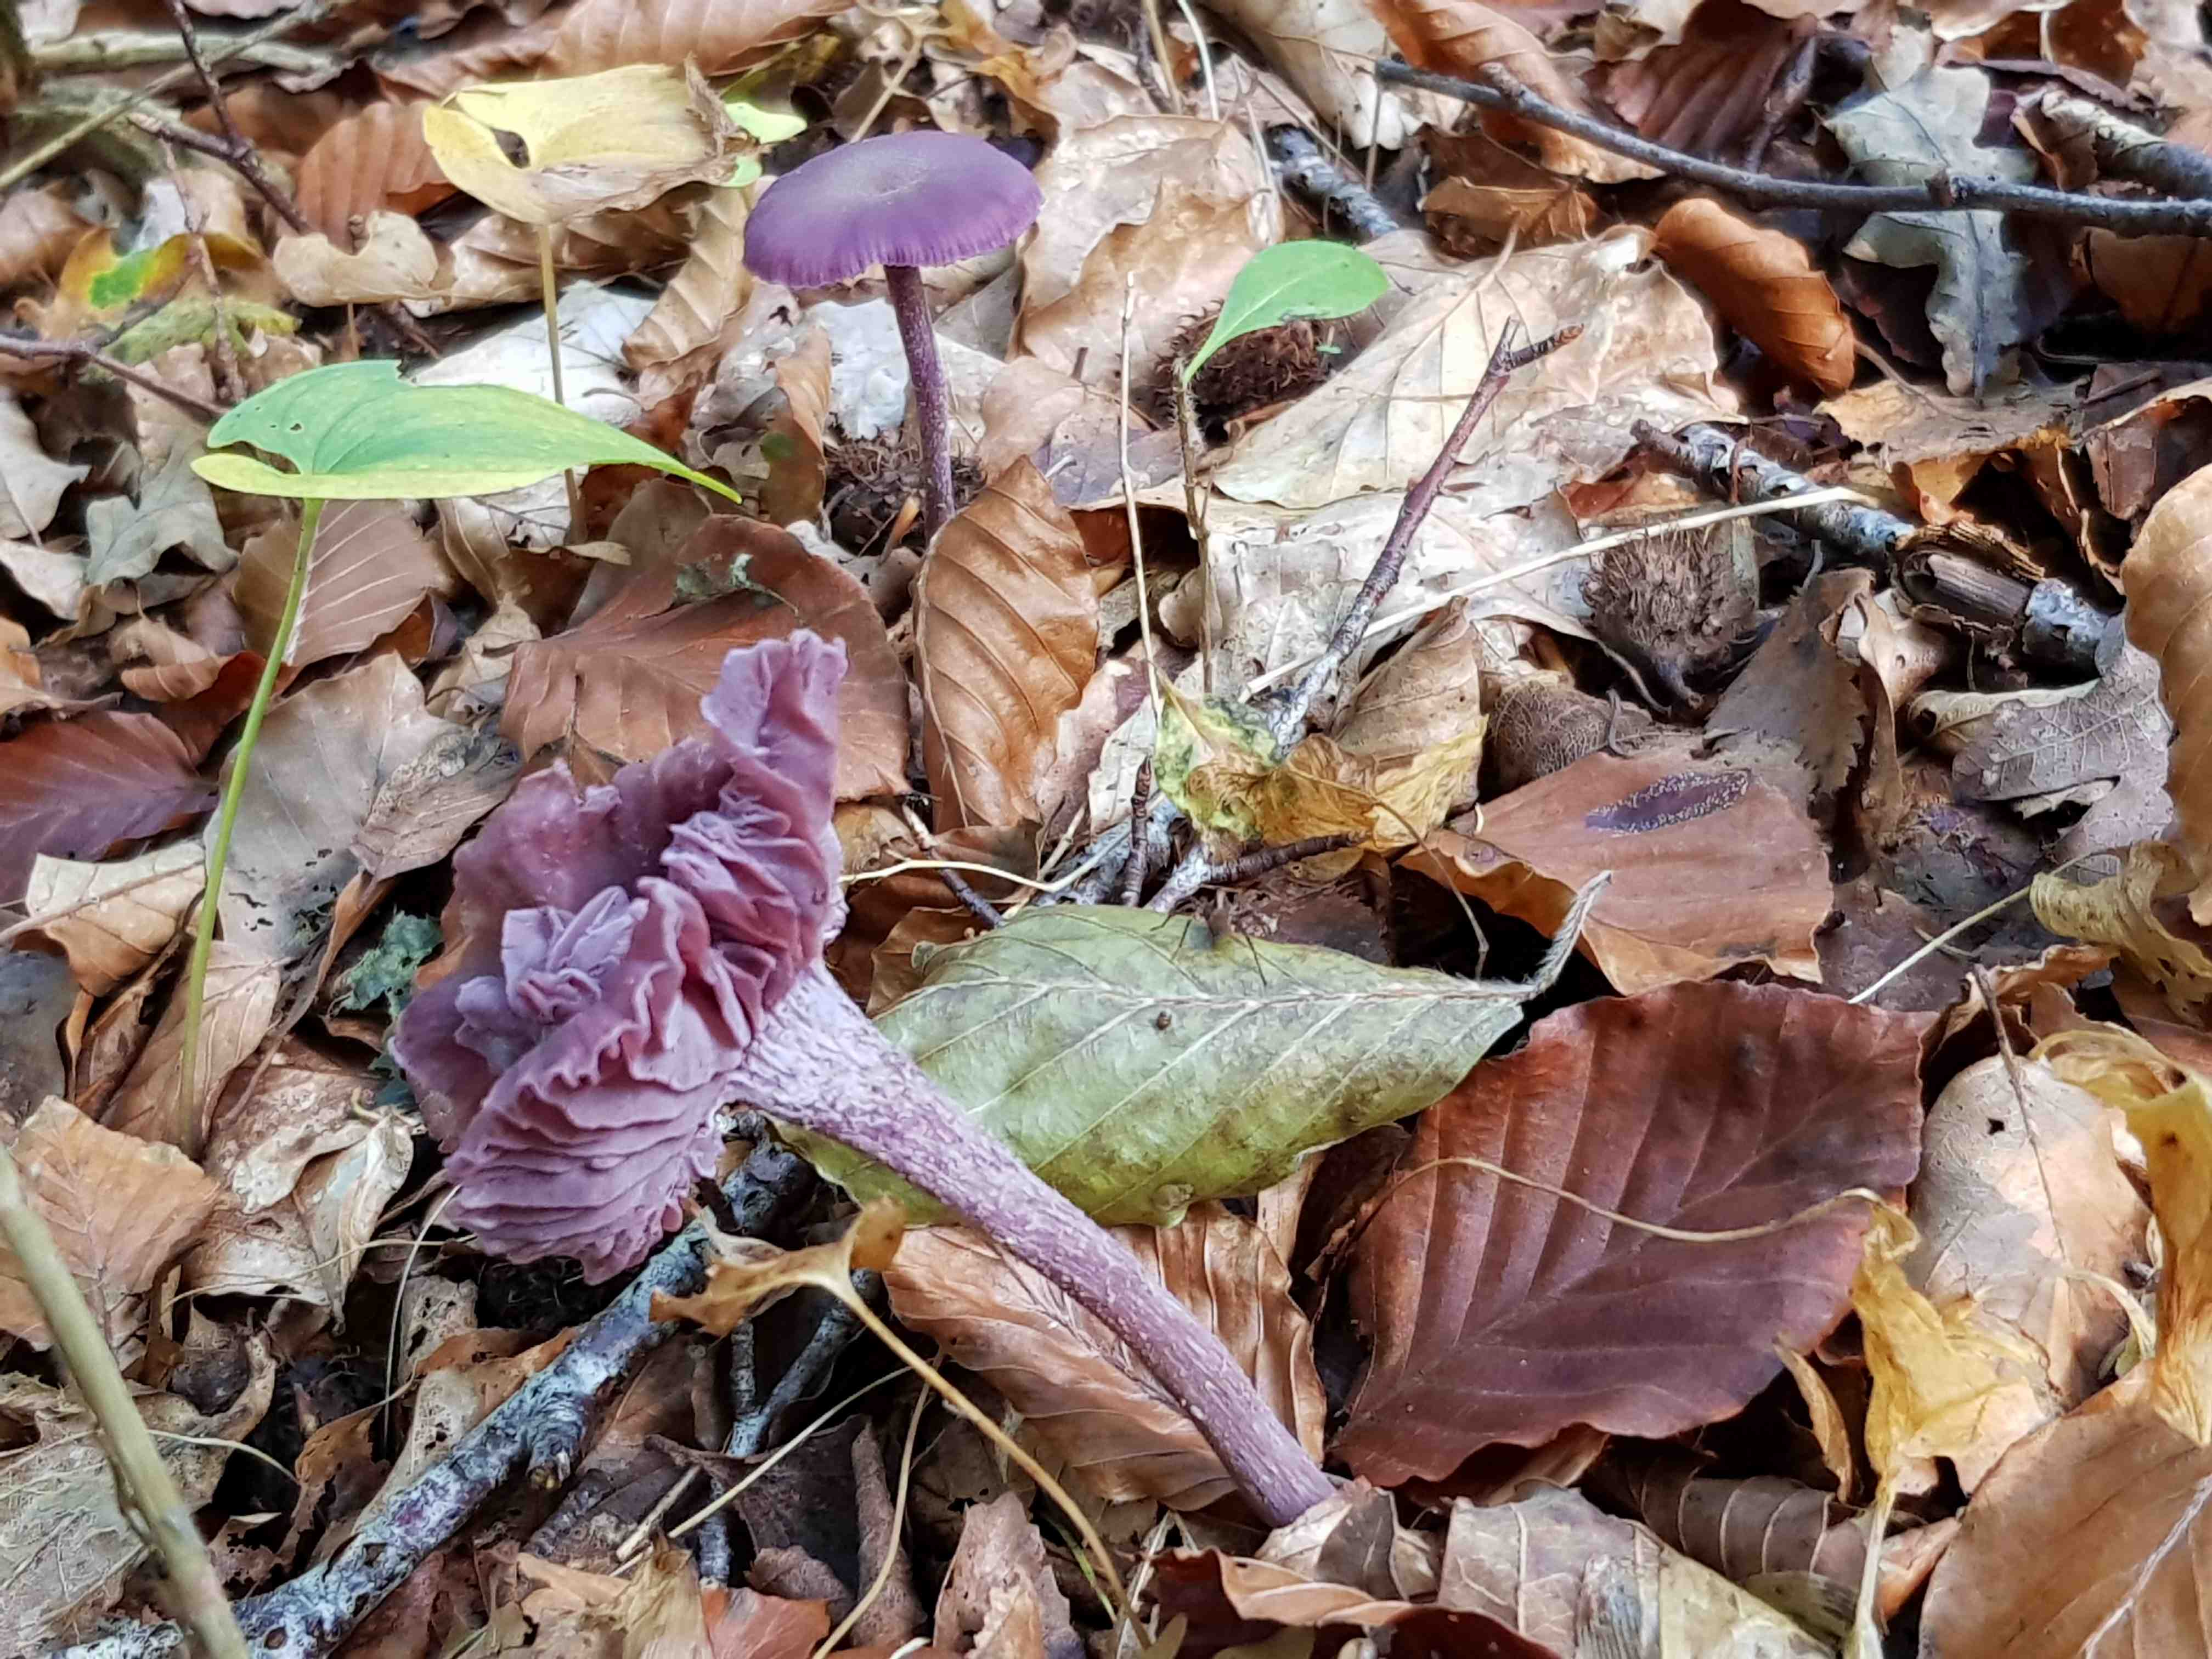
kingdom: Fungi
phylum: Basidiomycota
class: Agaricomycetes
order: Agaricales
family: Hydnangiaceae
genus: Laccaria
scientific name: Laccaria amethystina
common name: violet ametysthat
